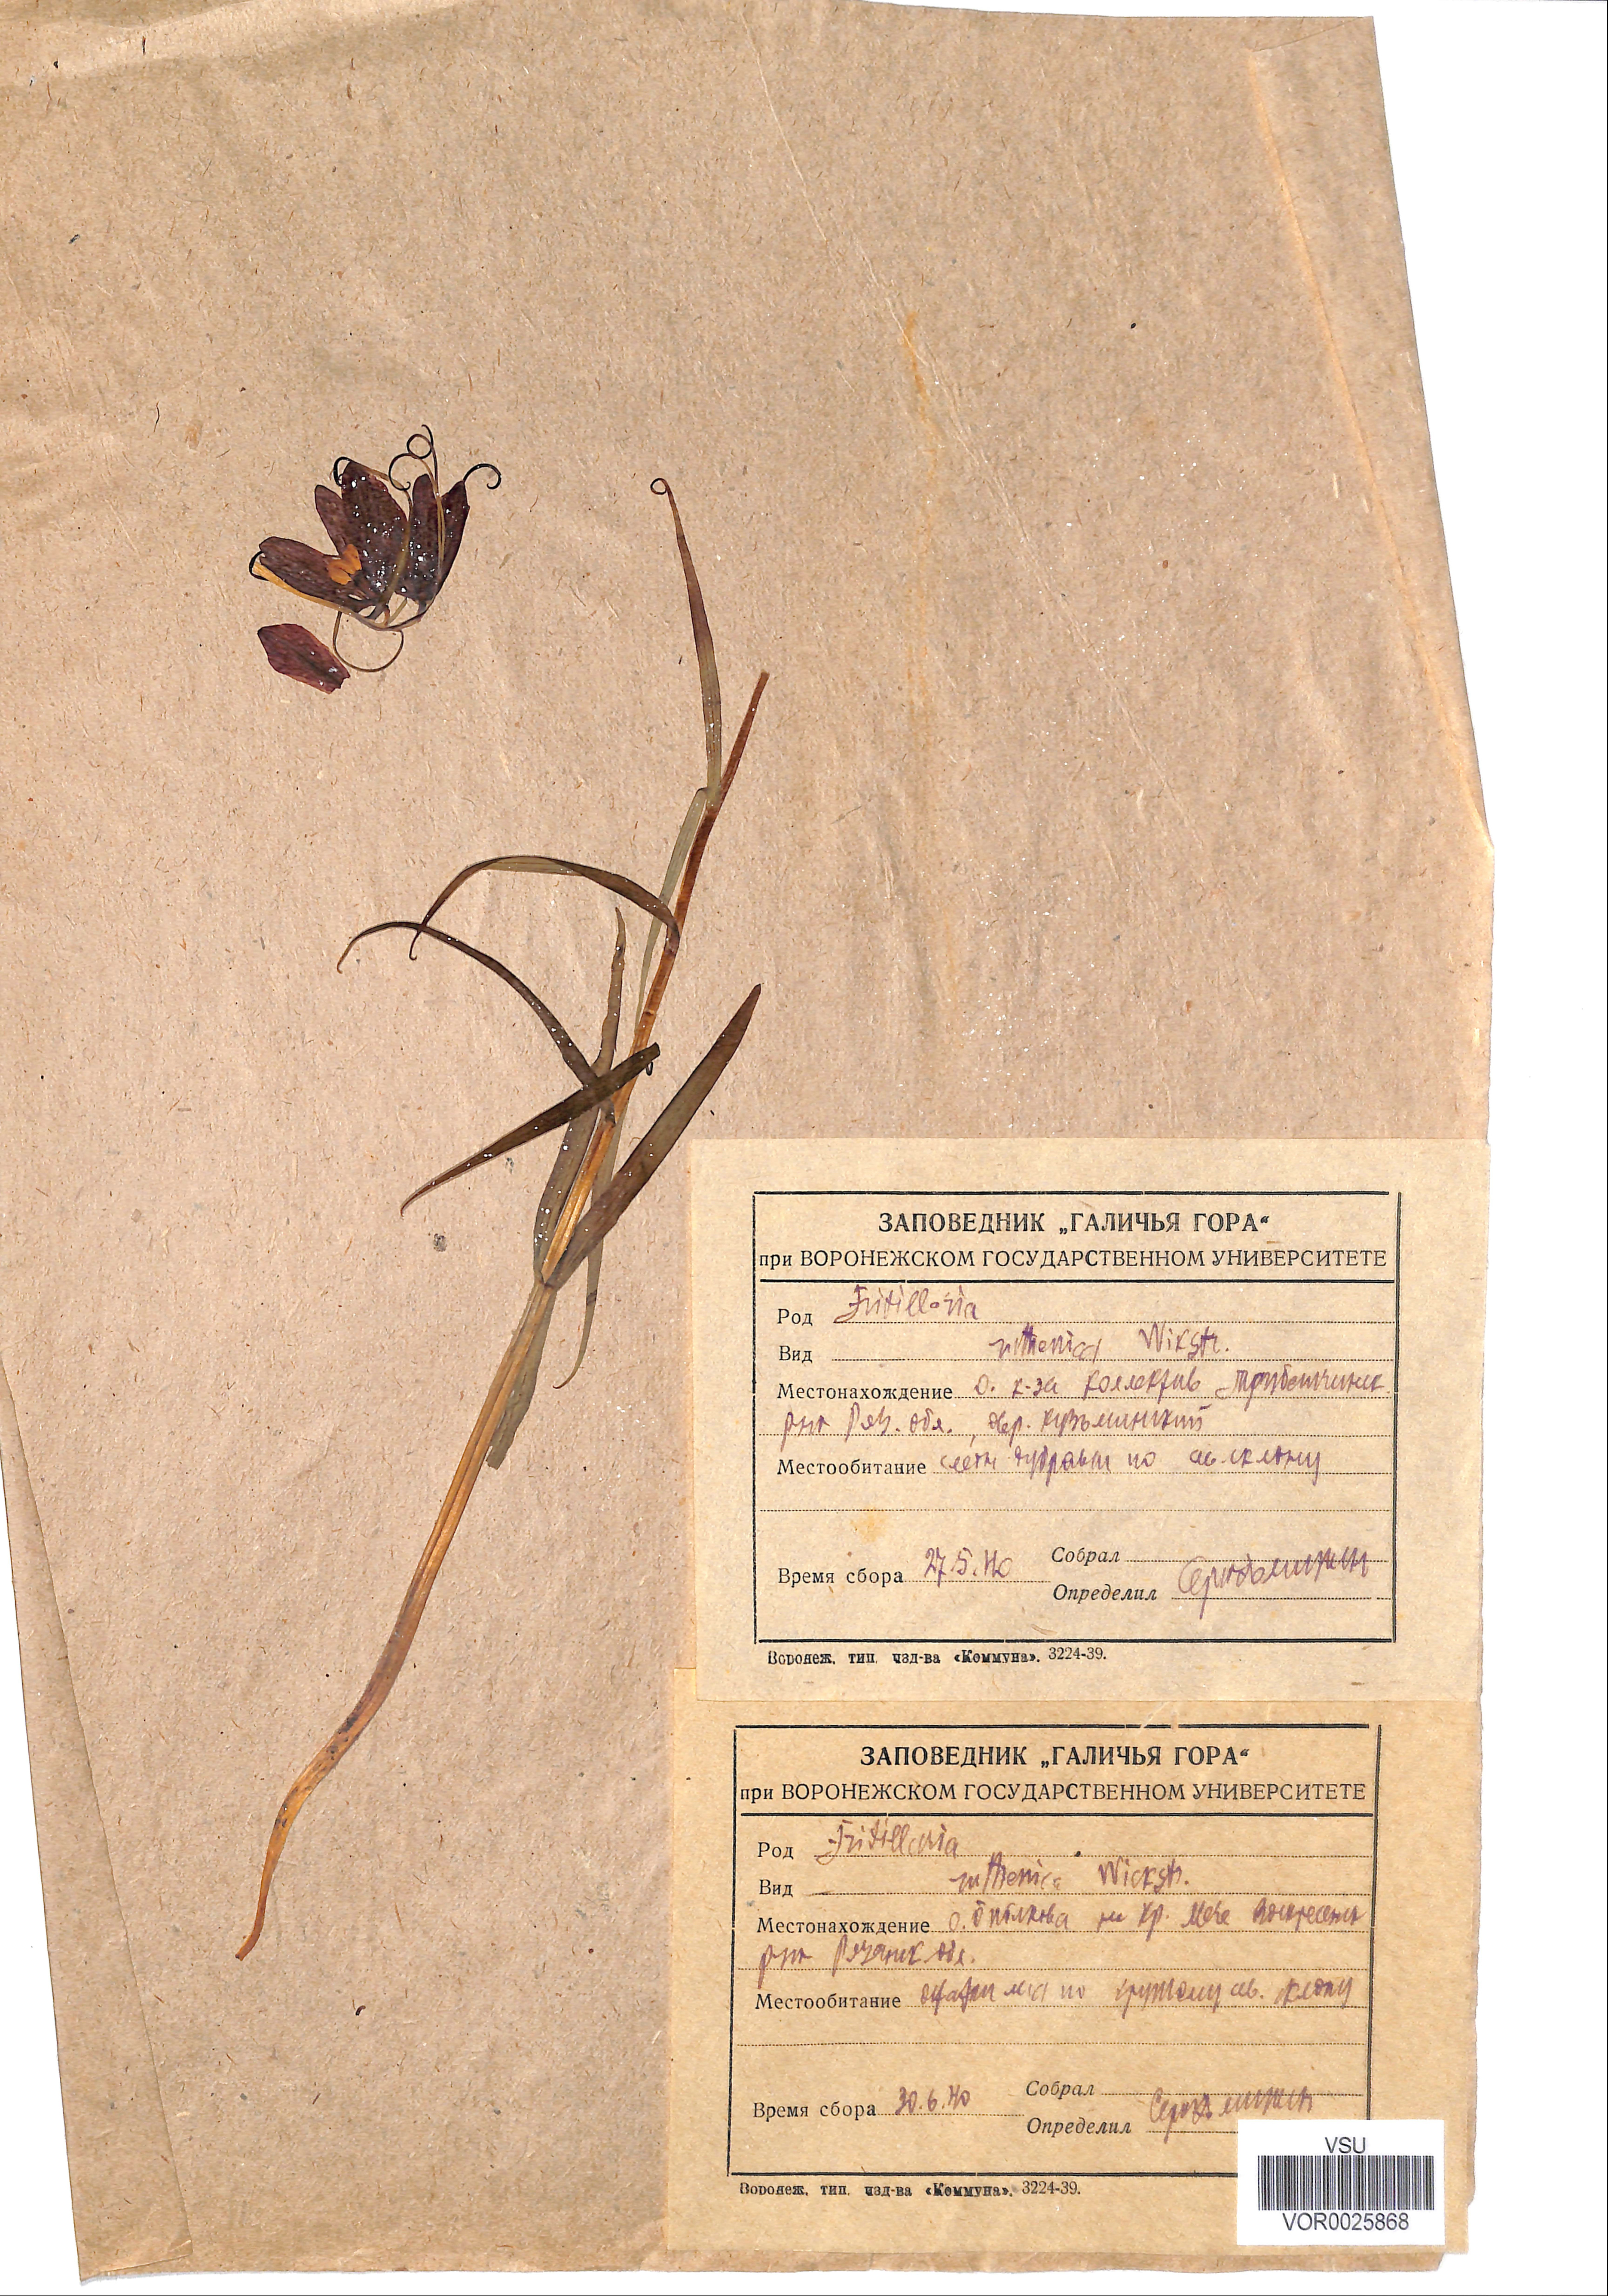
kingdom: Plantae
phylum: Tracheophyta
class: Liliopsida
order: Liliales
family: Liliaceae
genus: Fritillaria
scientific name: Fritillaria ruthenica
